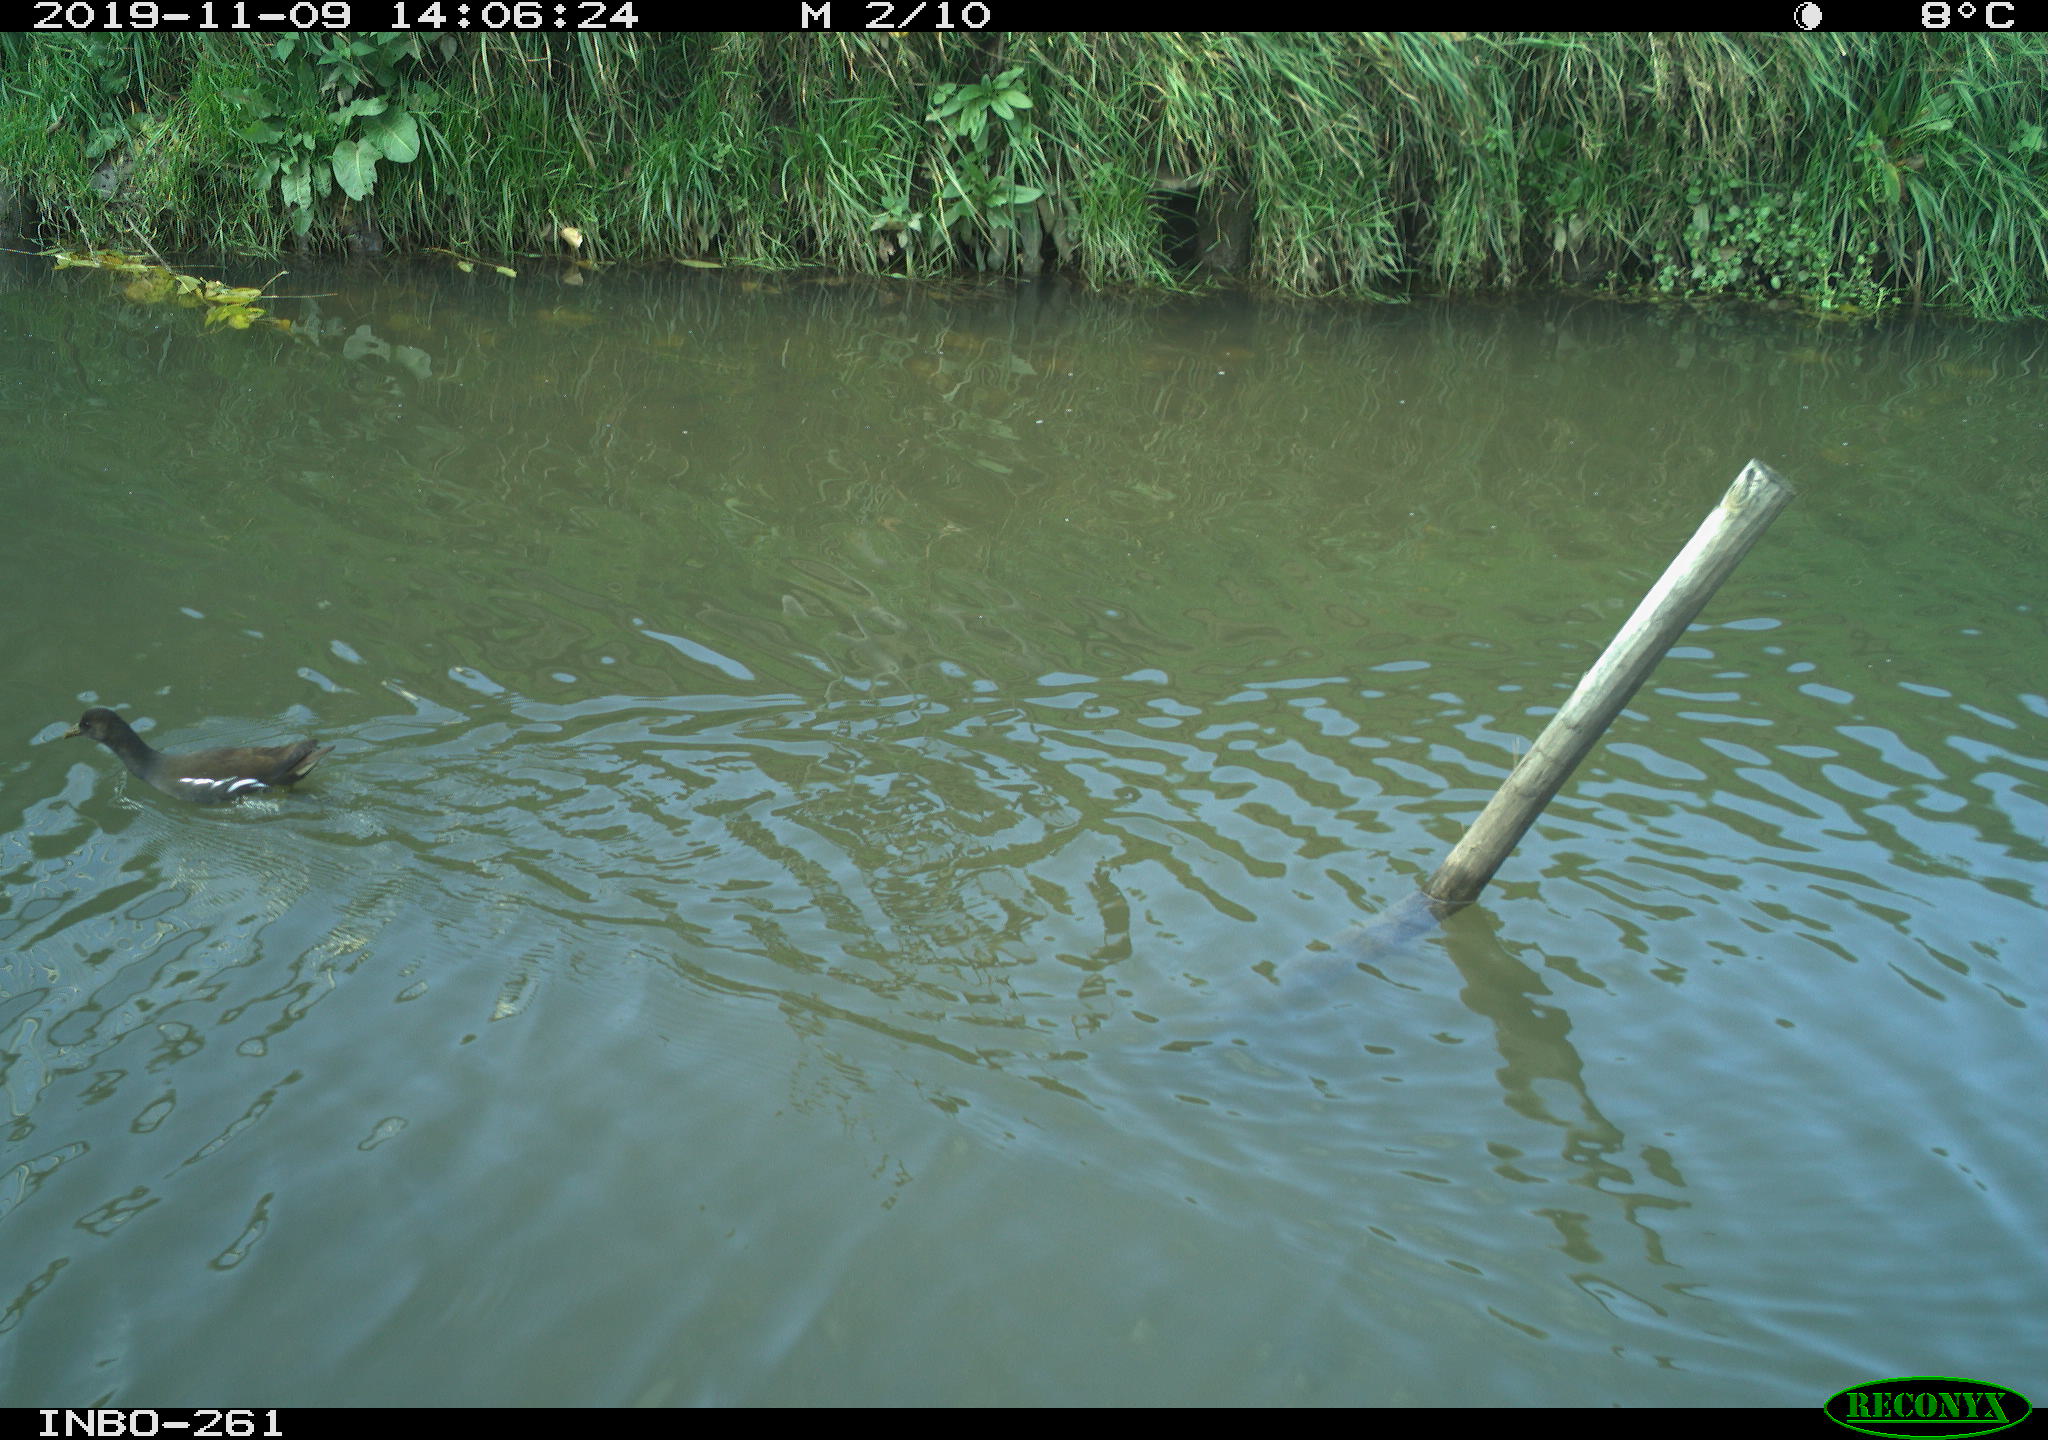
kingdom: Animalia
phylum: Chordata
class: Aves
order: Gruiformes
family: Rallidae
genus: Gallinula
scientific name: Gallinula chloropus
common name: Common moorhen
